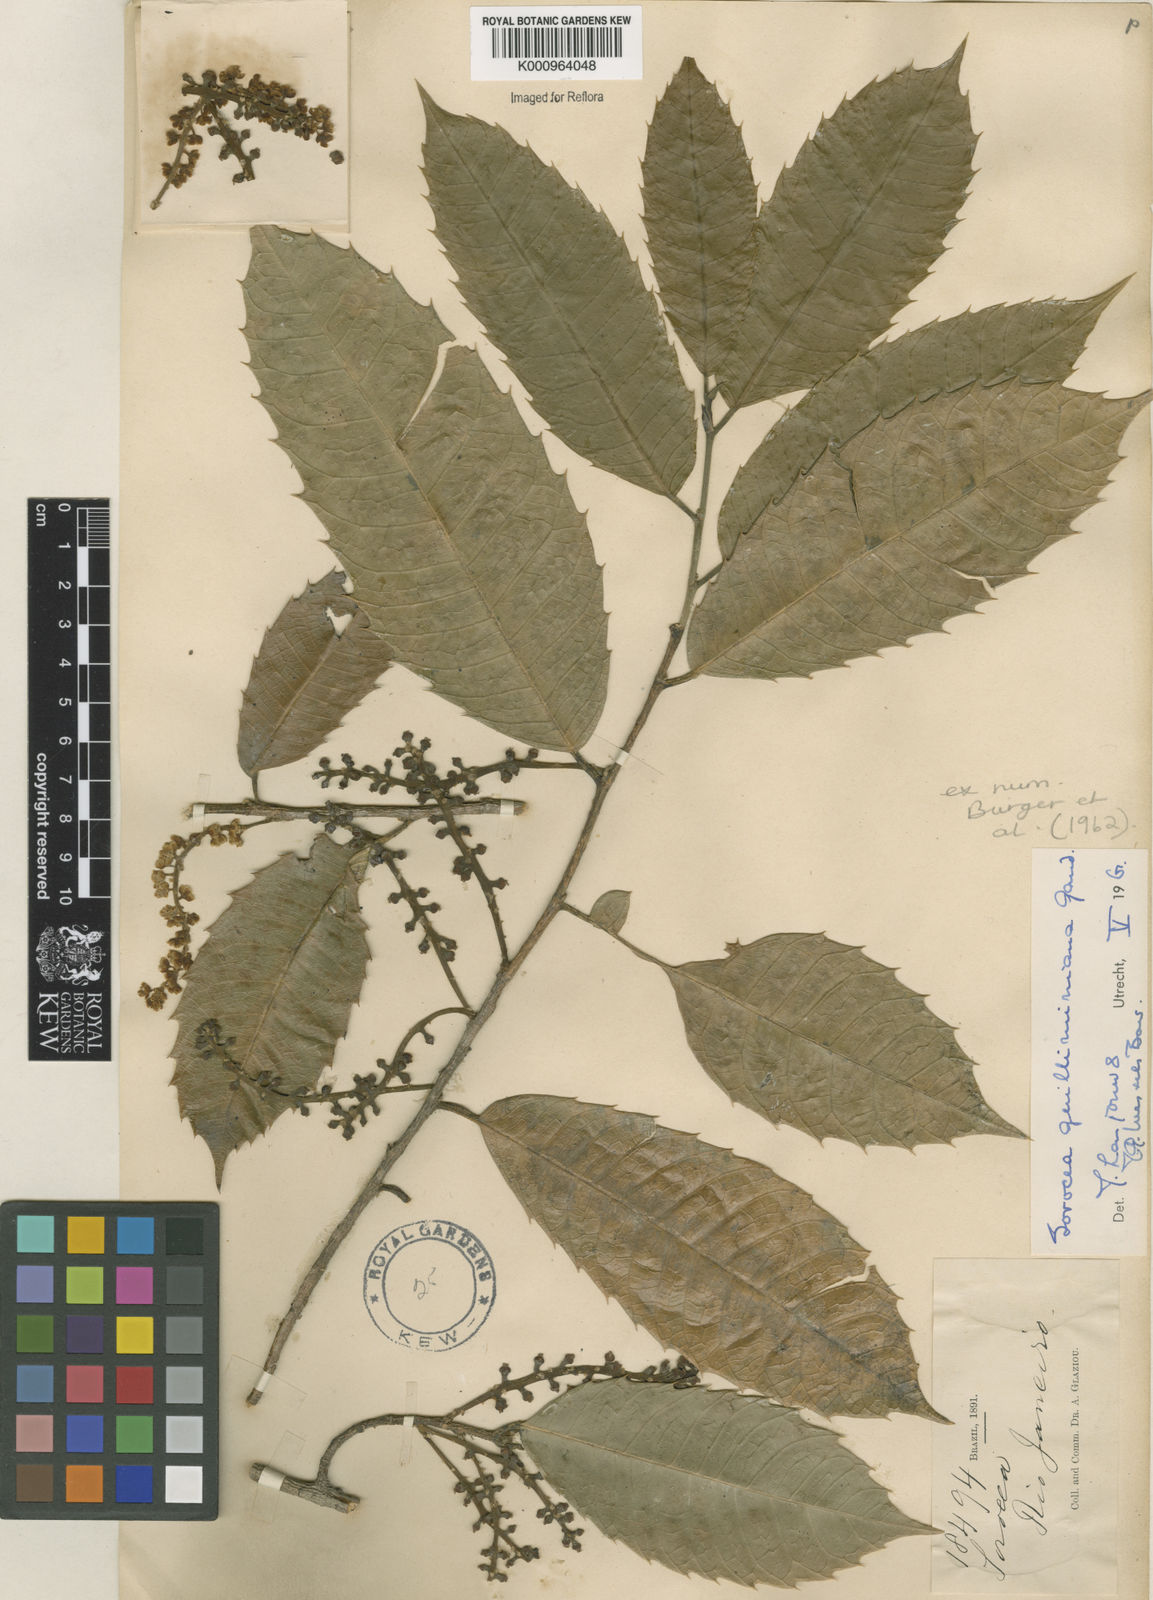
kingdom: Plantae
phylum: Tracheophyta
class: Magnoliopsida
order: Rosales
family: Moraceae
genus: Sorocea
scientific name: Sorocea guilleminiana
